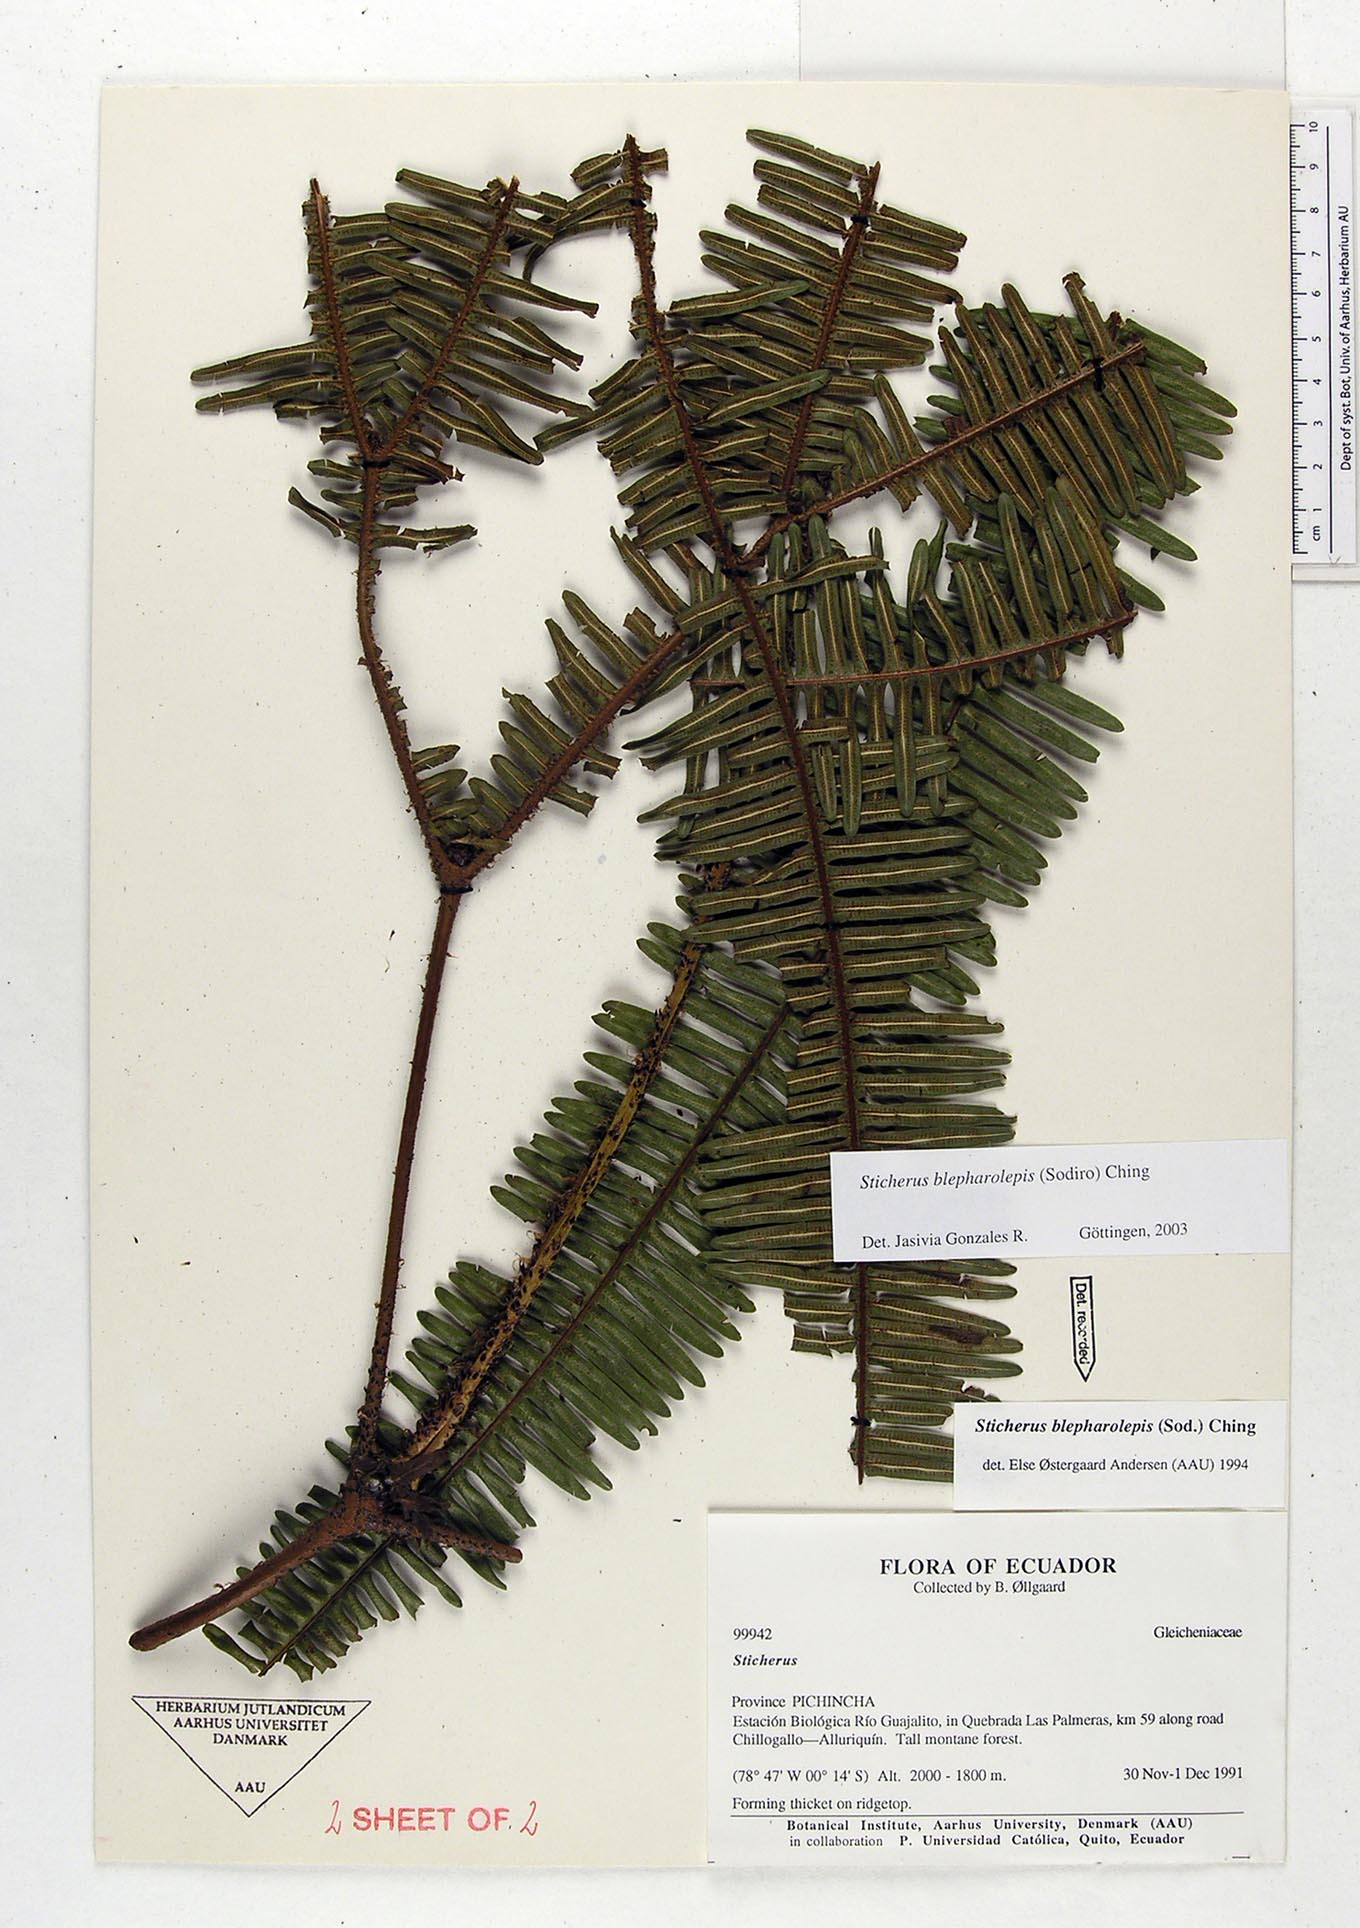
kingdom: Plantae
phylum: Tracheophyta
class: Polypodiopsida
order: Gleicheniales
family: Gleicheniaceae
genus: Sticherus
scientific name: Sticherus blepharolepis
